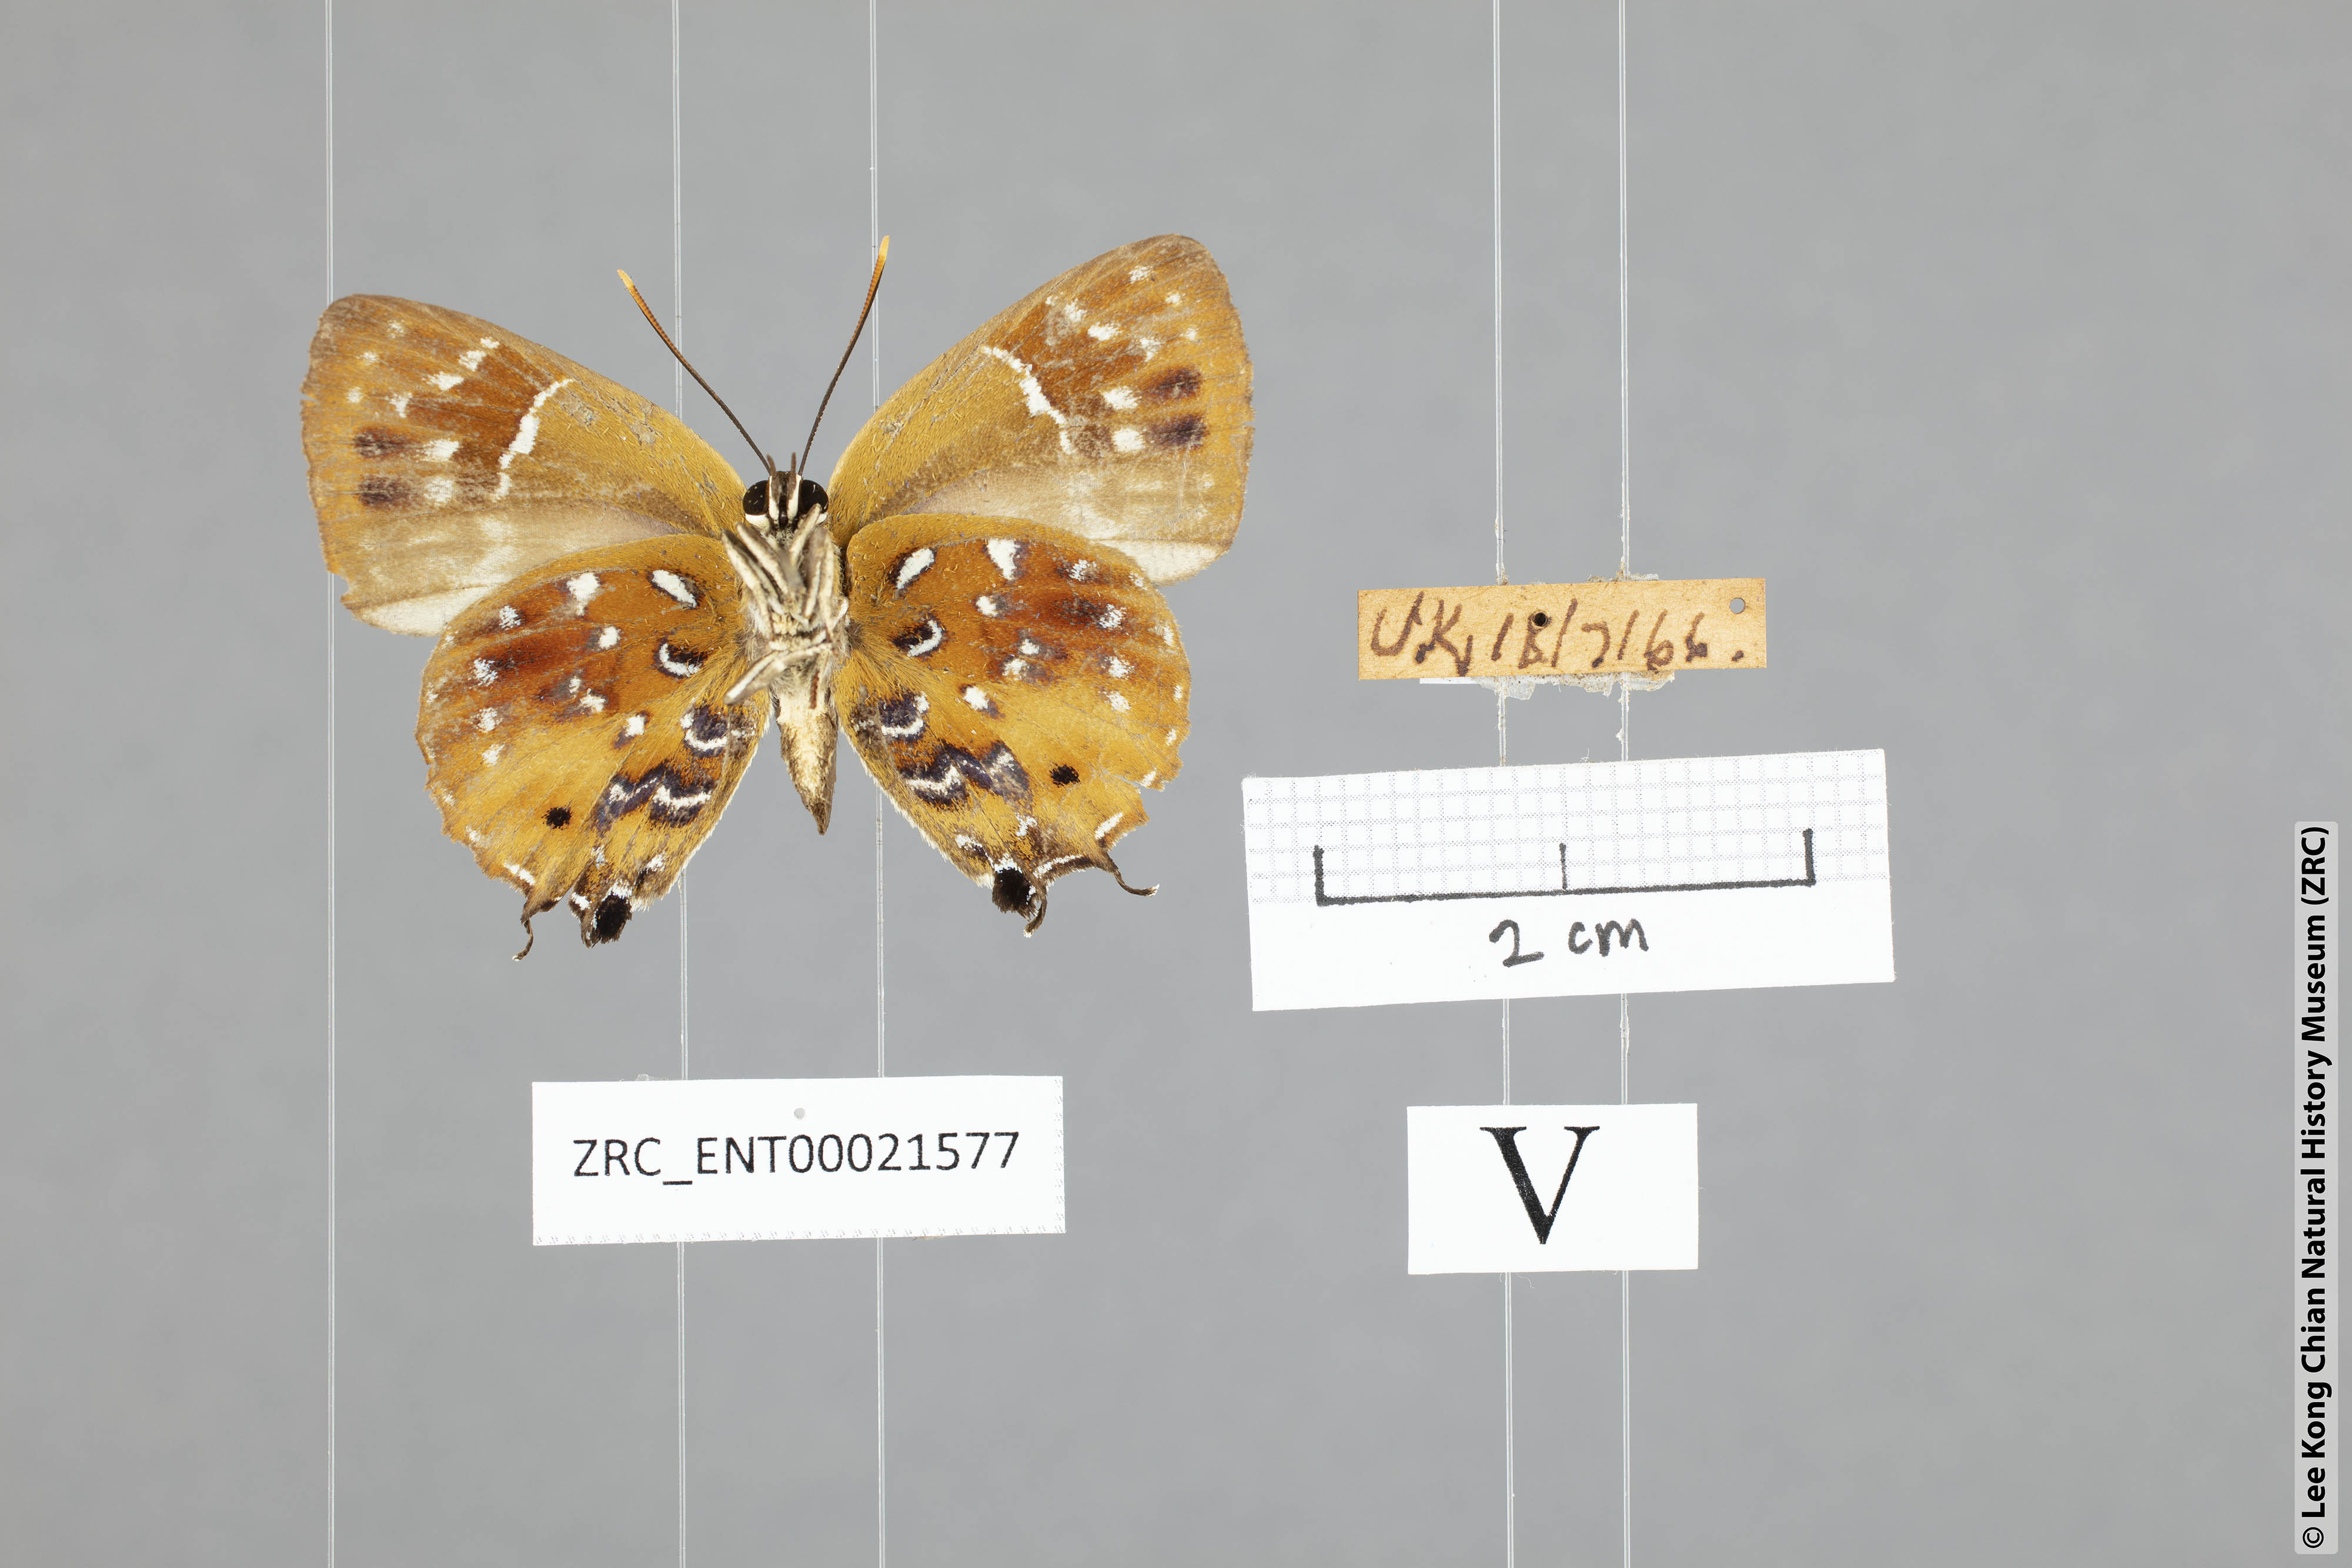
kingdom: Animalia
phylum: Arthropoda
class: Insecta
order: Lepidoptera
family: Lycaenidae
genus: Iraota
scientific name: Iraota
